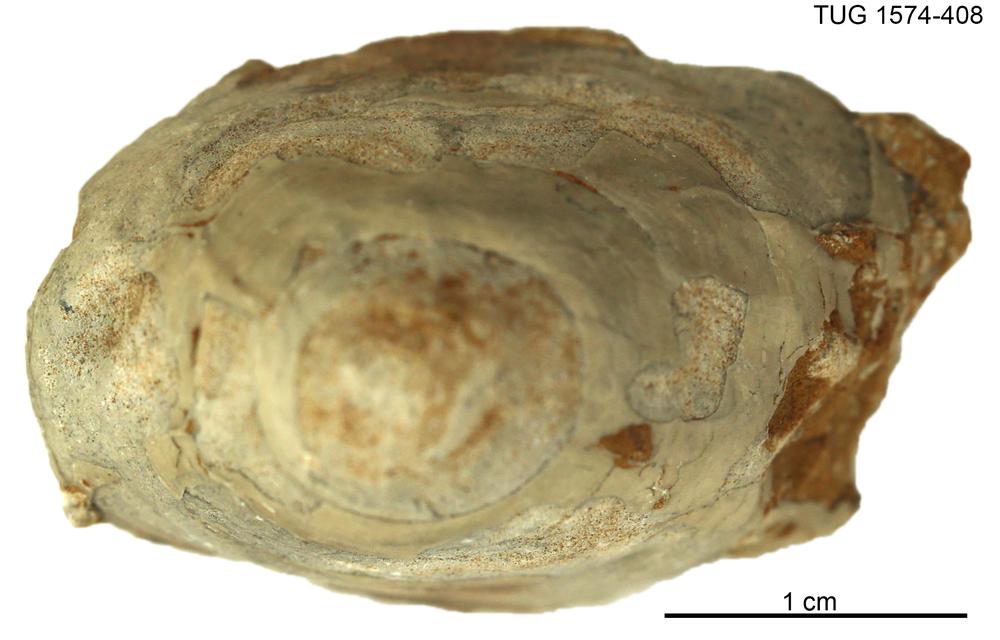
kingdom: Animalia
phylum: Mollusca
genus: Halophiala
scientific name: Halophiala
